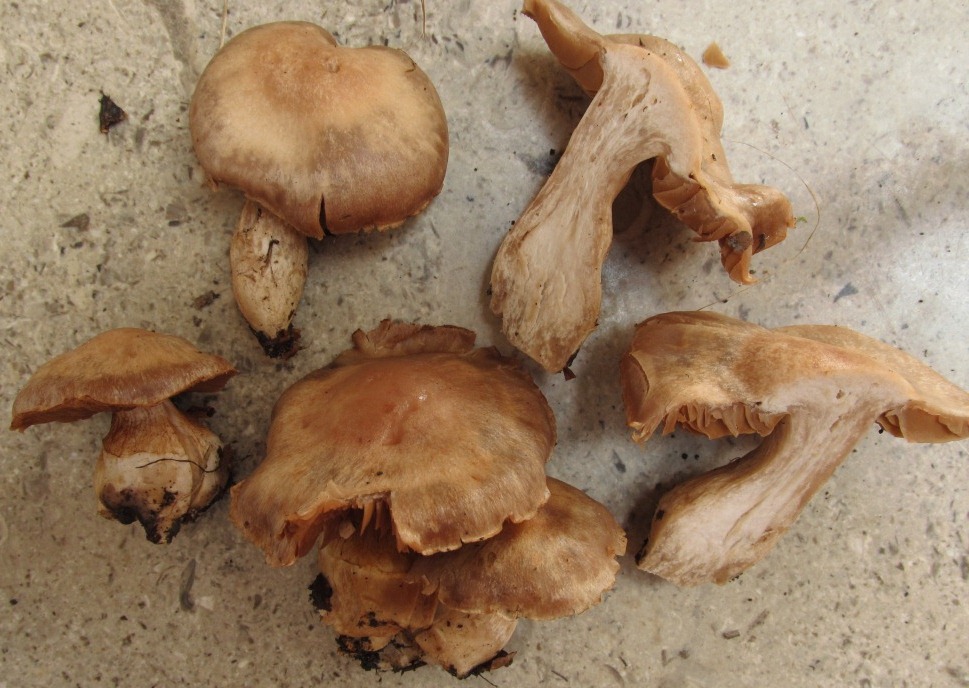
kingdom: Fungi
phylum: Basidiomycota
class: Agaricomycetes
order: Agaricales
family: Cortinariaceae
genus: Cortinarius
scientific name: Cortinarius
